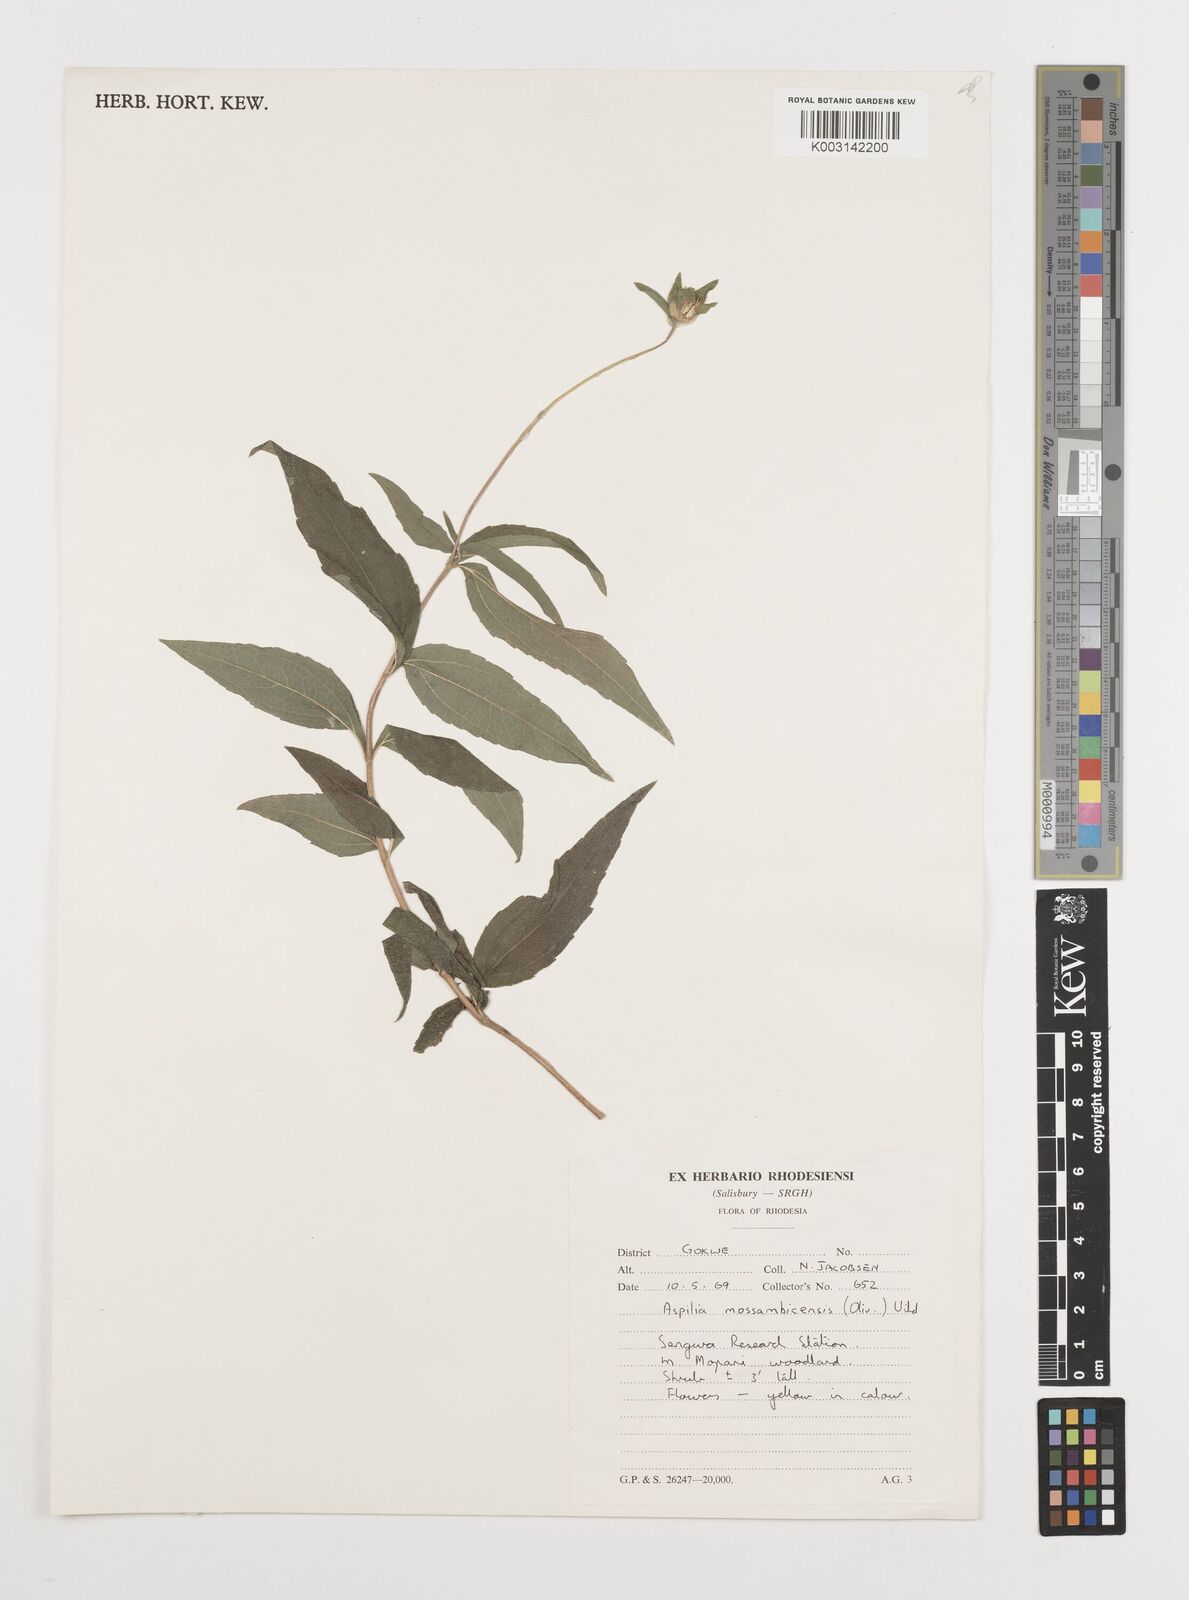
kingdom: Plantae
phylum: Tracheophyta
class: Magnoliopsida
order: Asterales
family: Asteraceae
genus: Aspilia
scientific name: Aspilia mossambicensis
